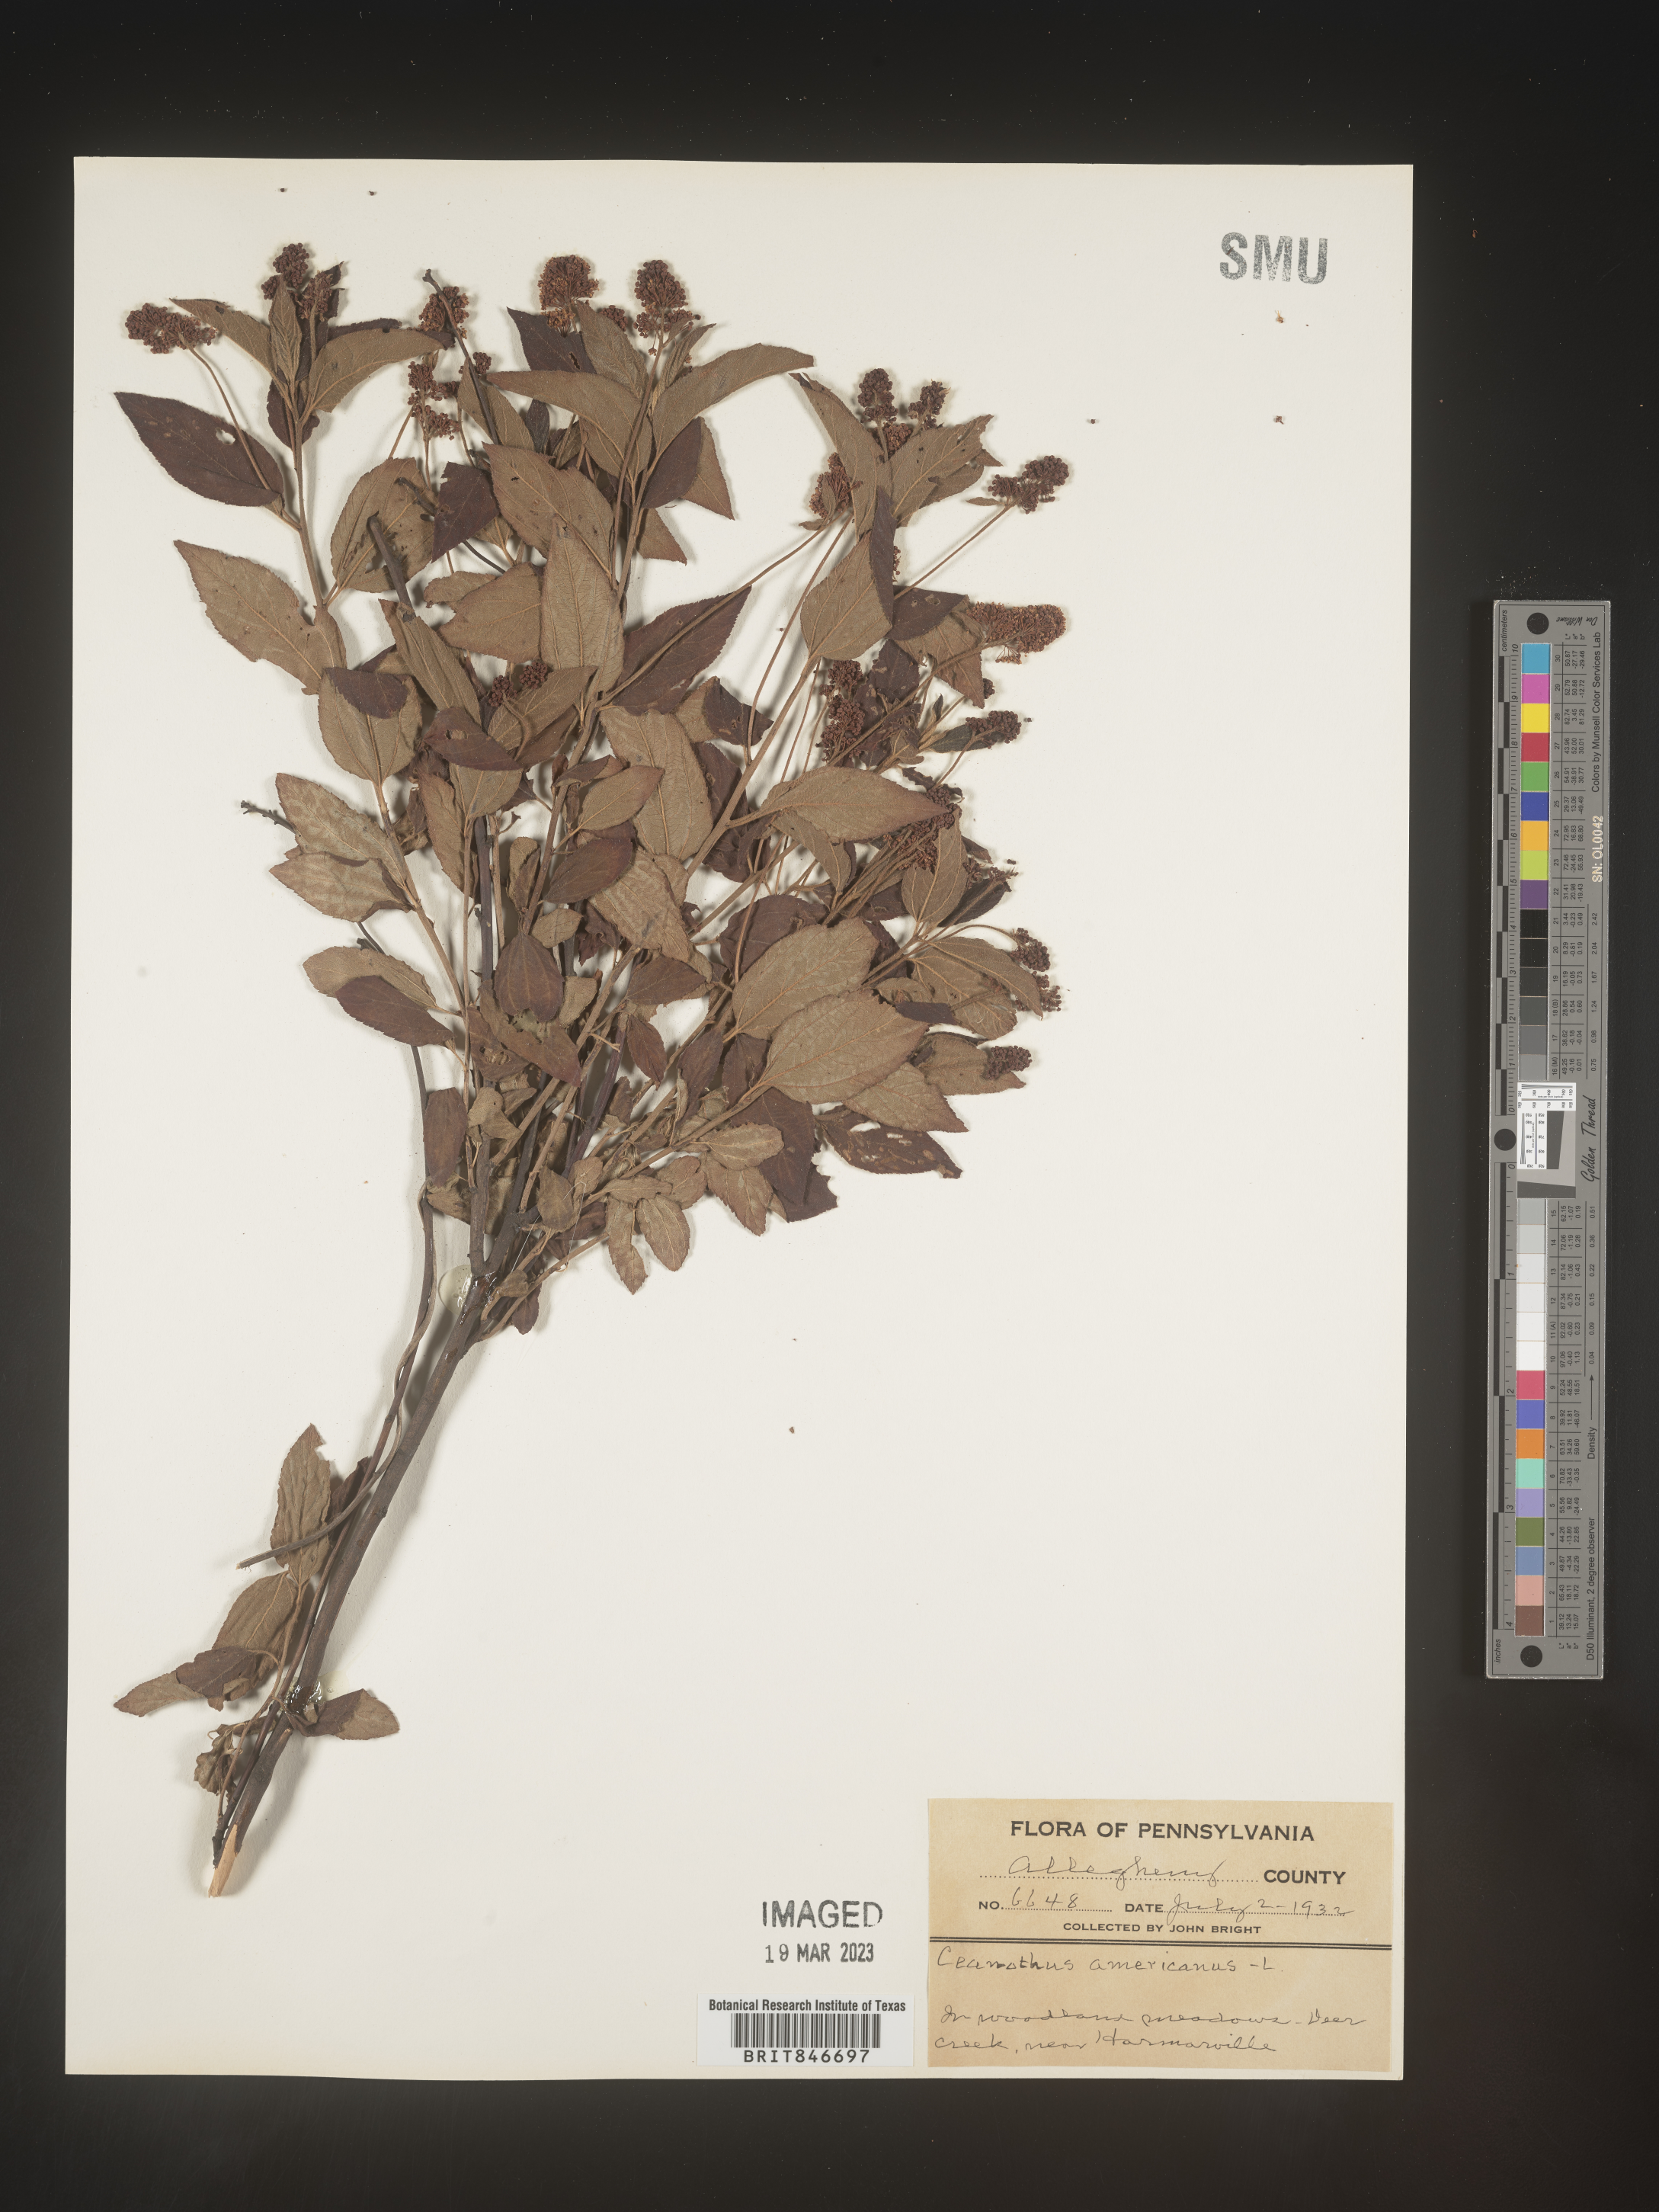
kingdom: Plantae
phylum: Tracheophyta
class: Magnoliopsida
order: Rosales
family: Rhamnaceae
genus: Ceanothus
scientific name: Ceanothus americanus
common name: Redroot
